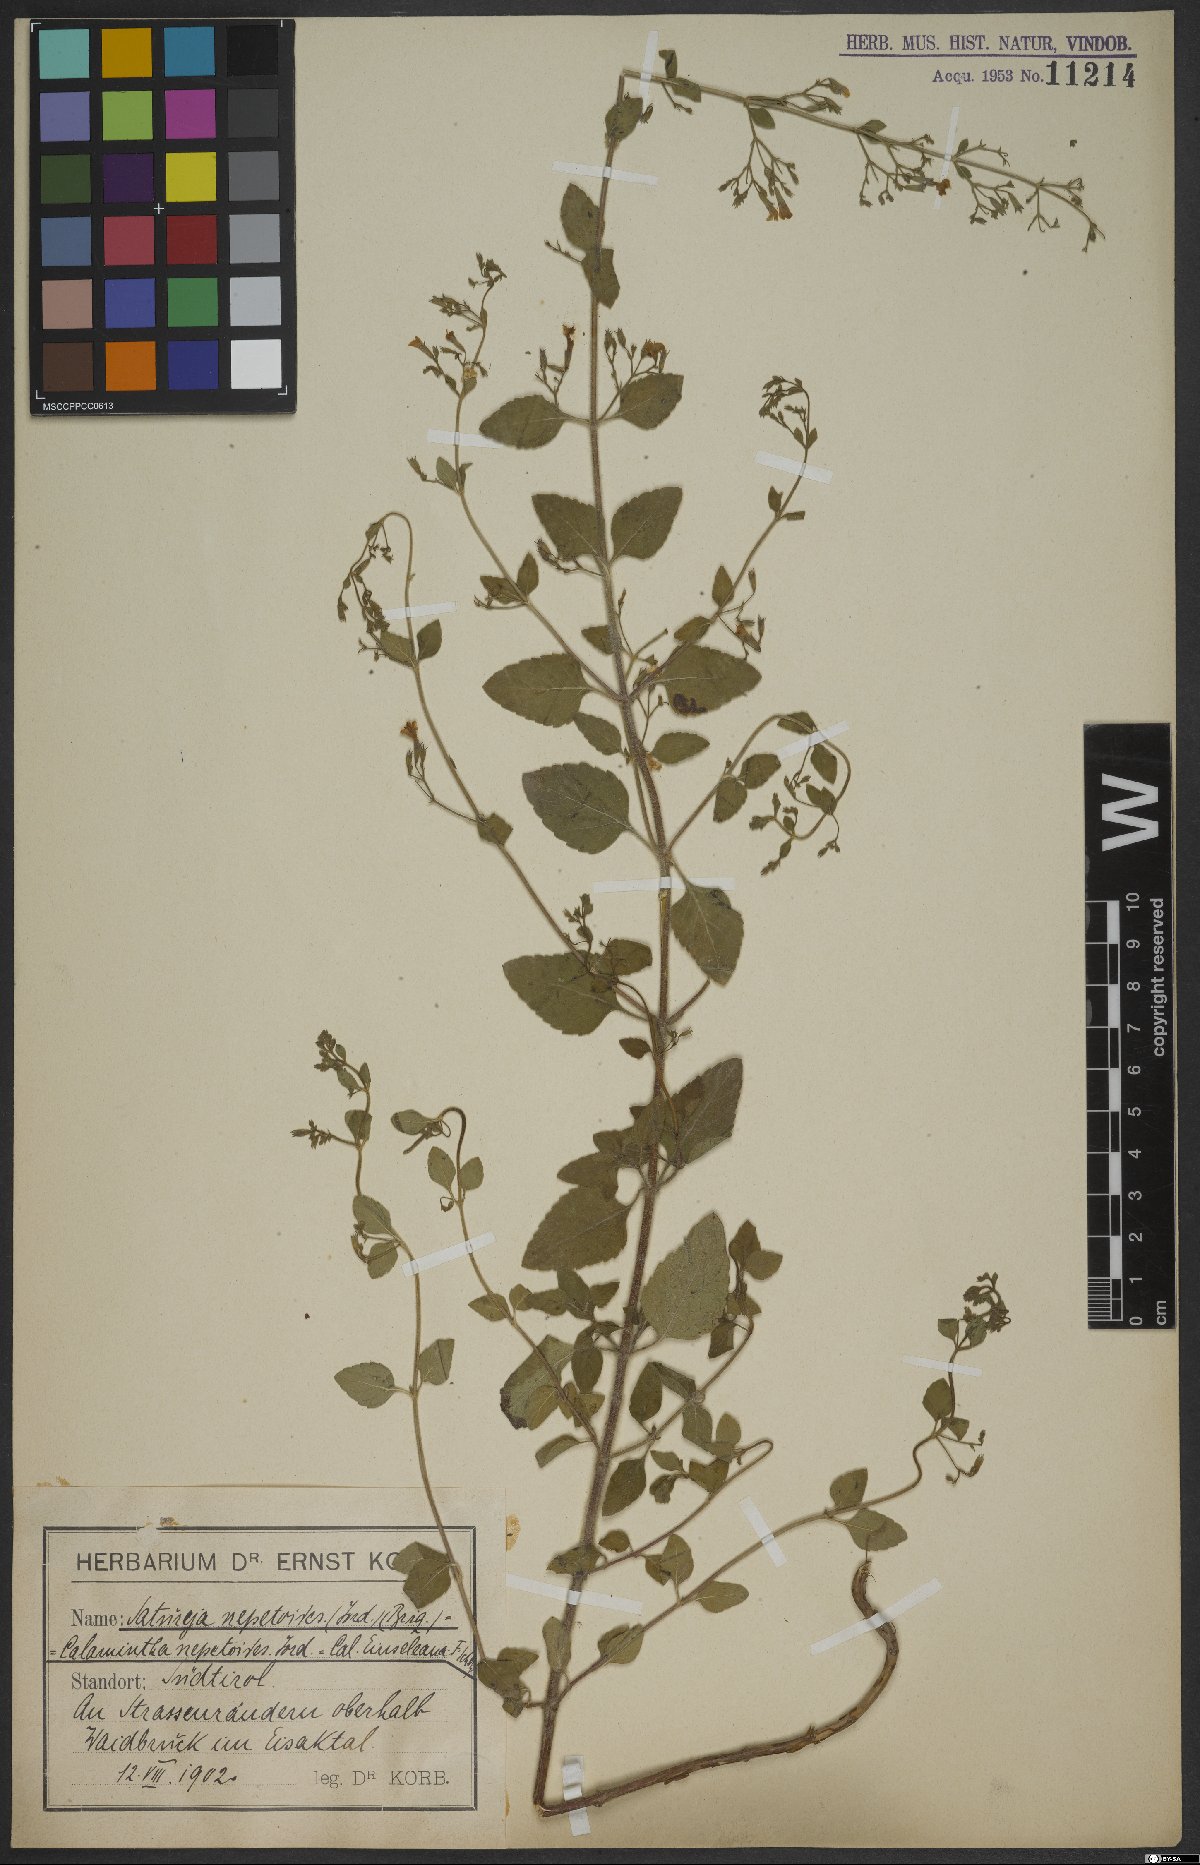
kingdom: Plantae
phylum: Tracheophyta
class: Magnoliopsida
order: Lamiales
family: Lamiaceae
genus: Clinopodium
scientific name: Clinopodium nepeta
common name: Lesser calamint
